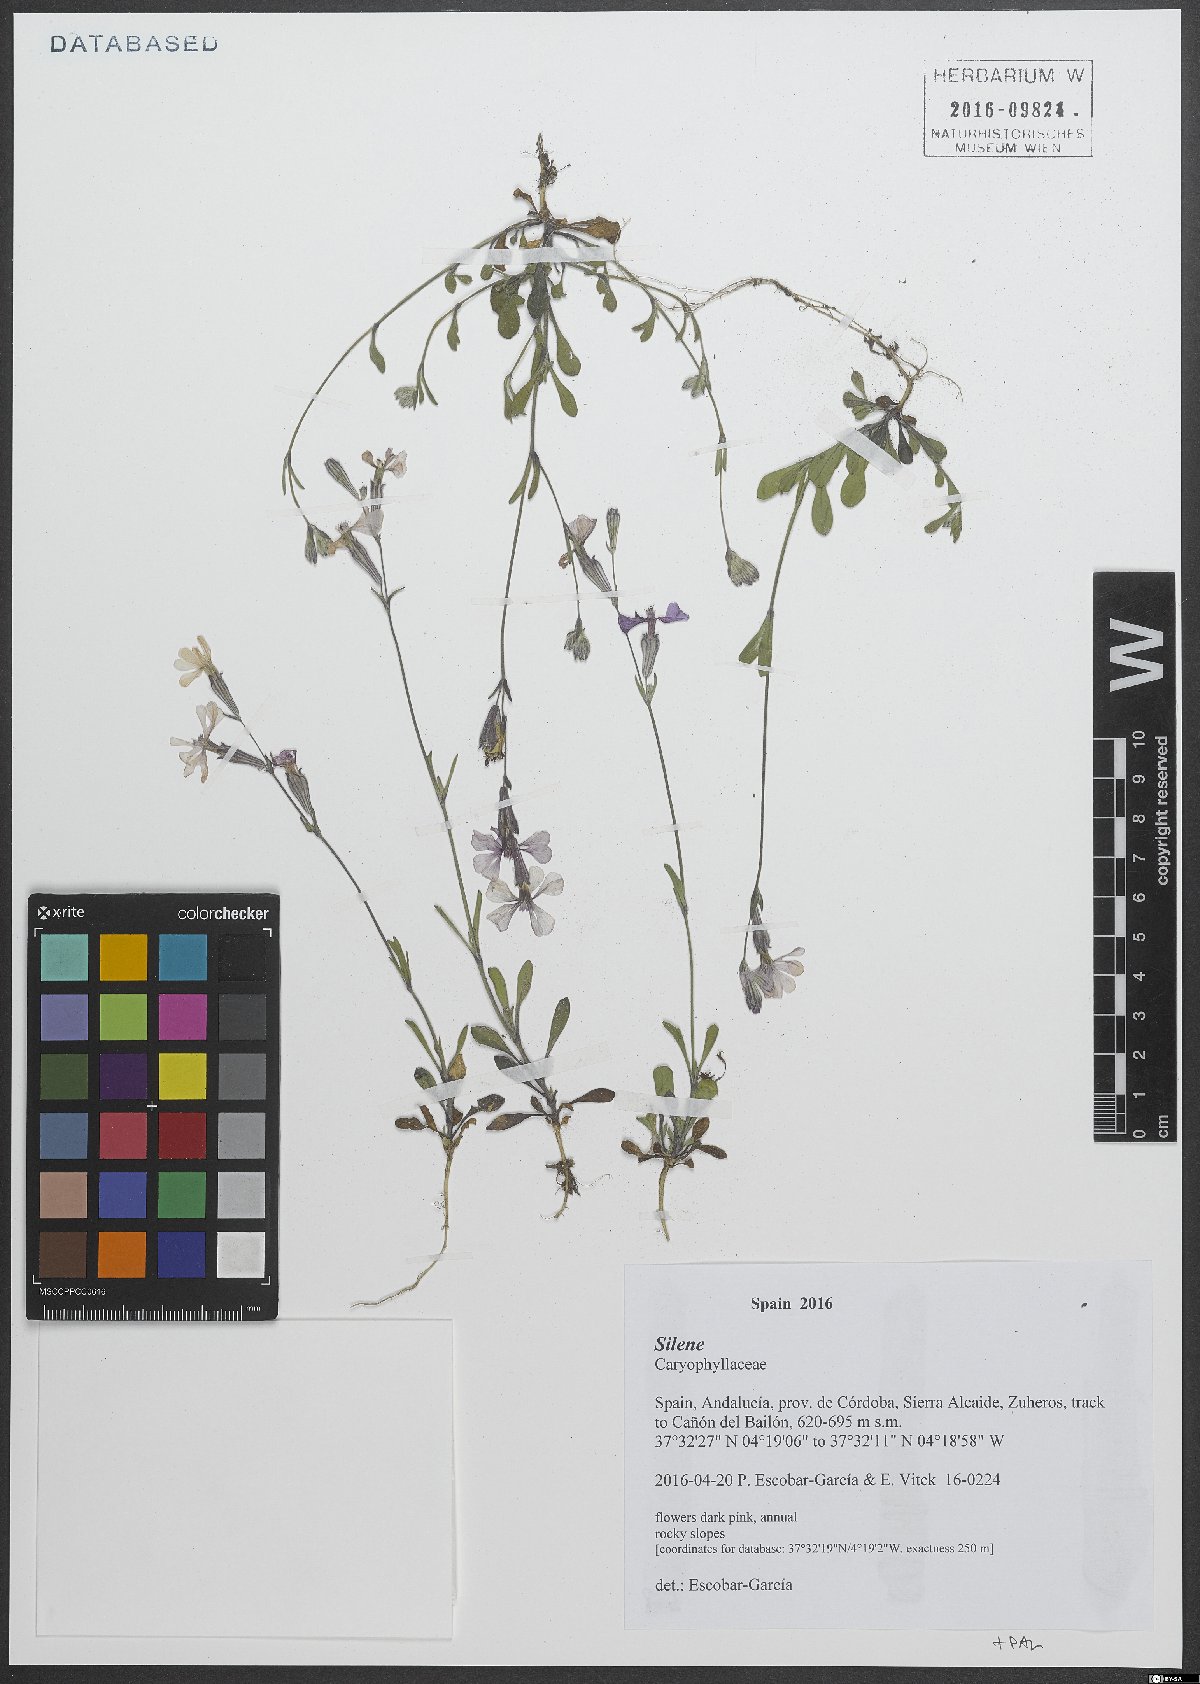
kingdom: Plantae
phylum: Tracheophyta
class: Magnoliopsida
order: Caryophyllales
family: Caryophyllaceae
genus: Silene
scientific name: Silene
